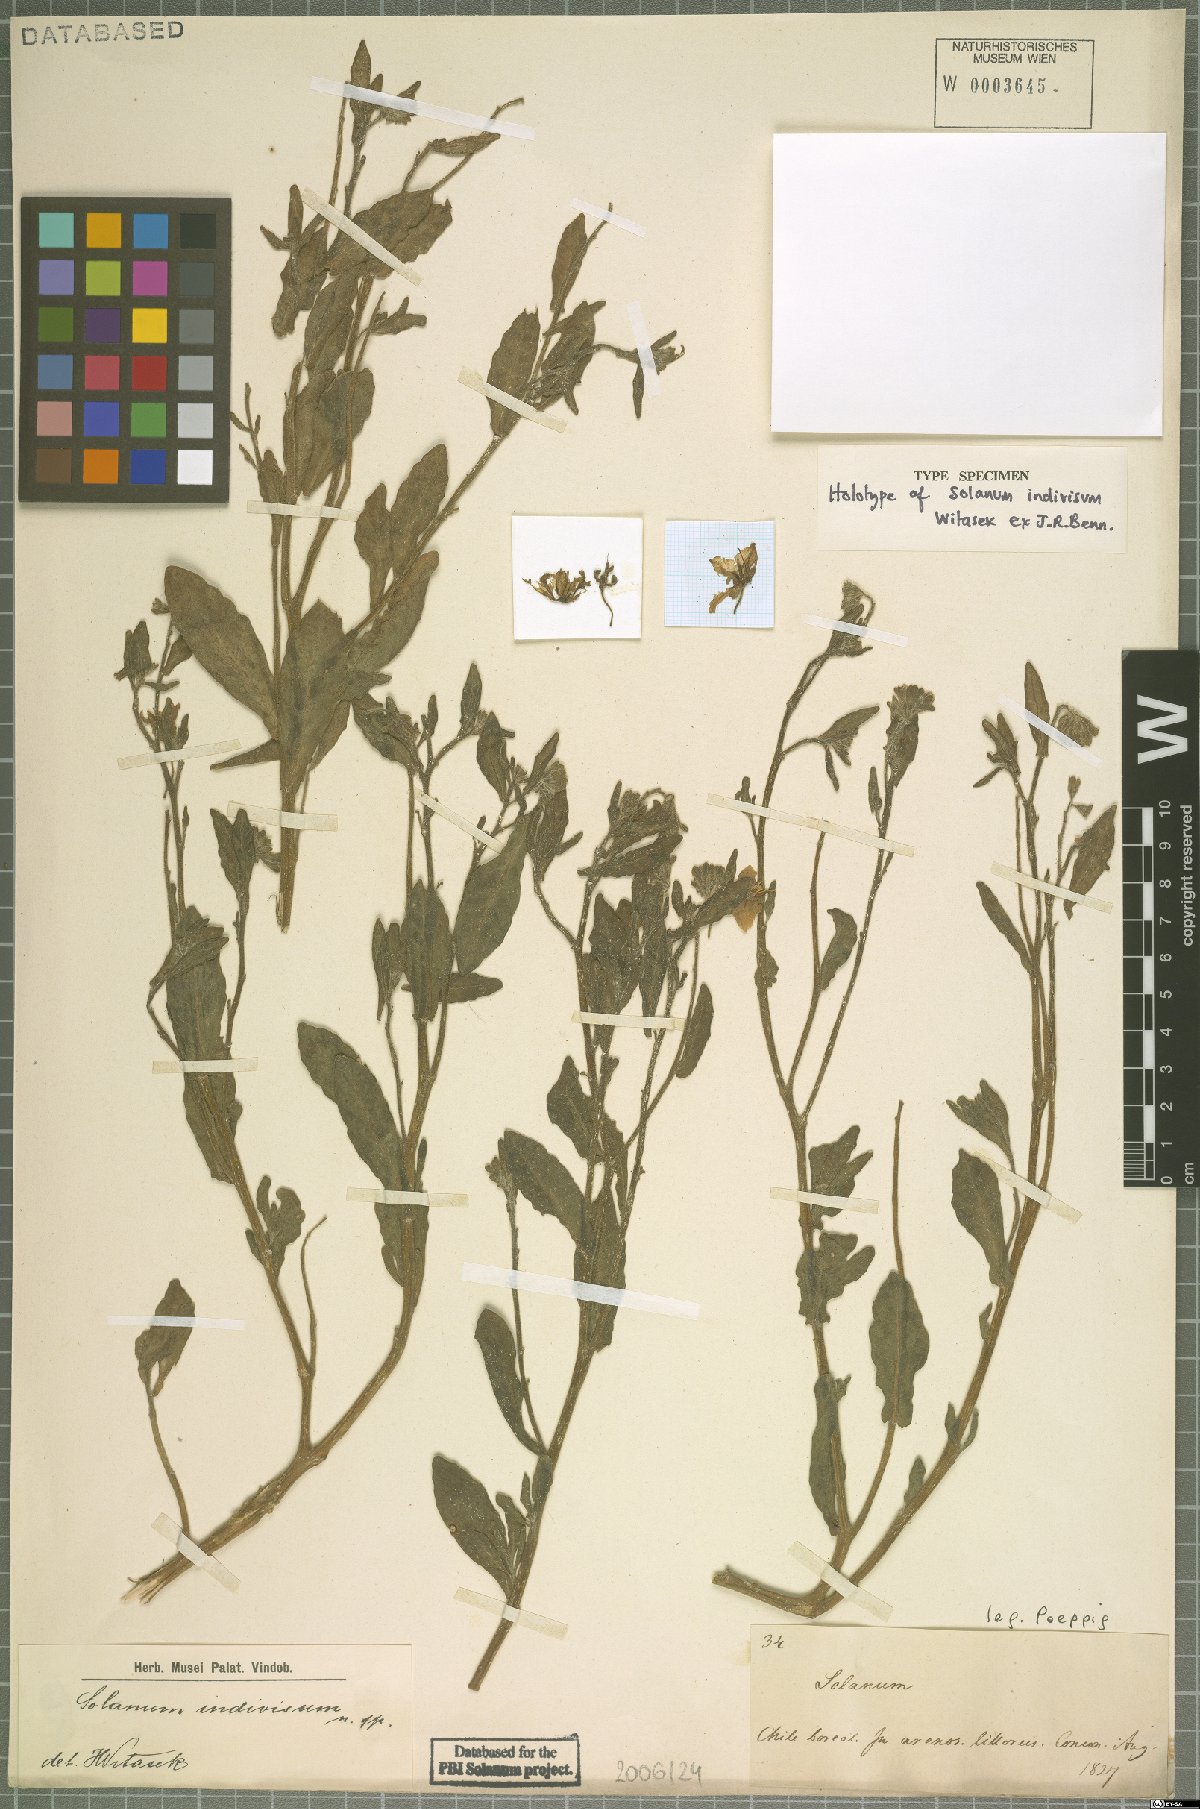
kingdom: Plantae
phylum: Tracheophyta
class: Magnoliopsida
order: Solanales
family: Solanaceae
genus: Solanum
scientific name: Solanum indivisum
